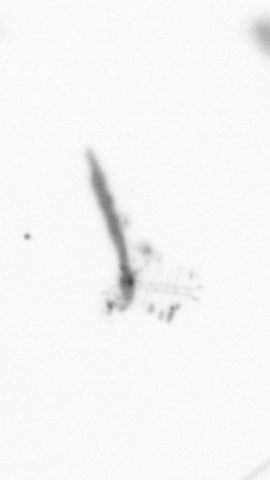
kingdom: Chromista
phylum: Ochrophyta
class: Bacillariophyceae
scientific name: Bacillariophyceae
